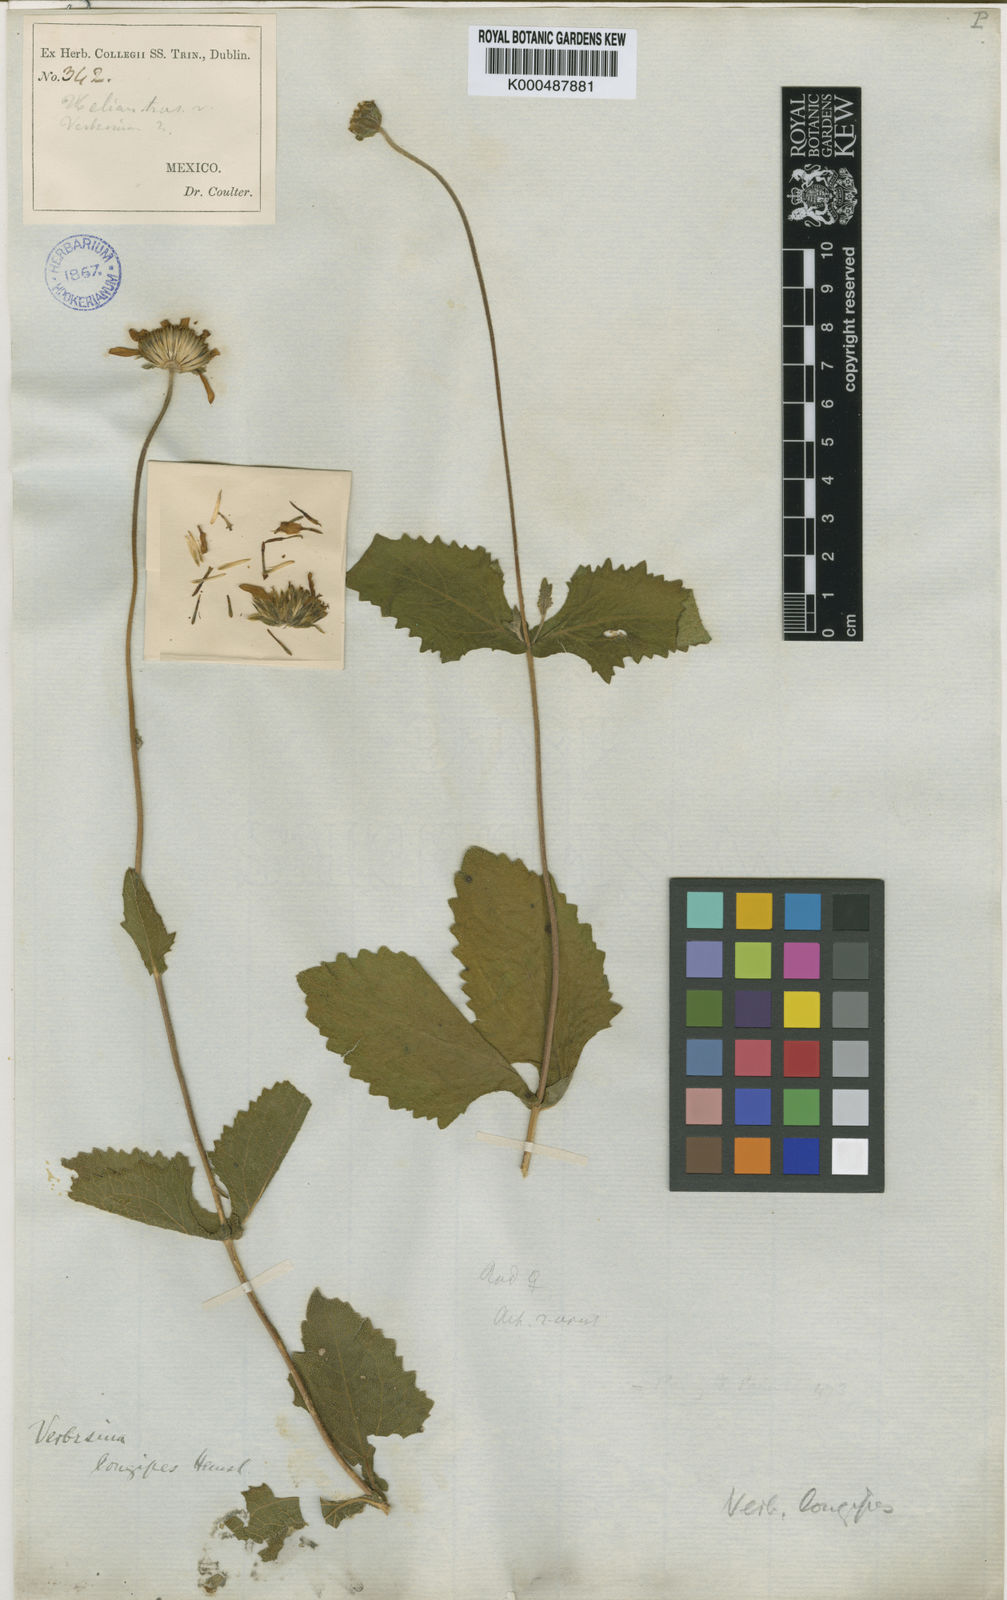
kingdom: Plantae
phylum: Tracheophyta
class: Magnoliopsida
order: Asterales
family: Asteraceae
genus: Verbesina
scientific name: Verbesina longipes
